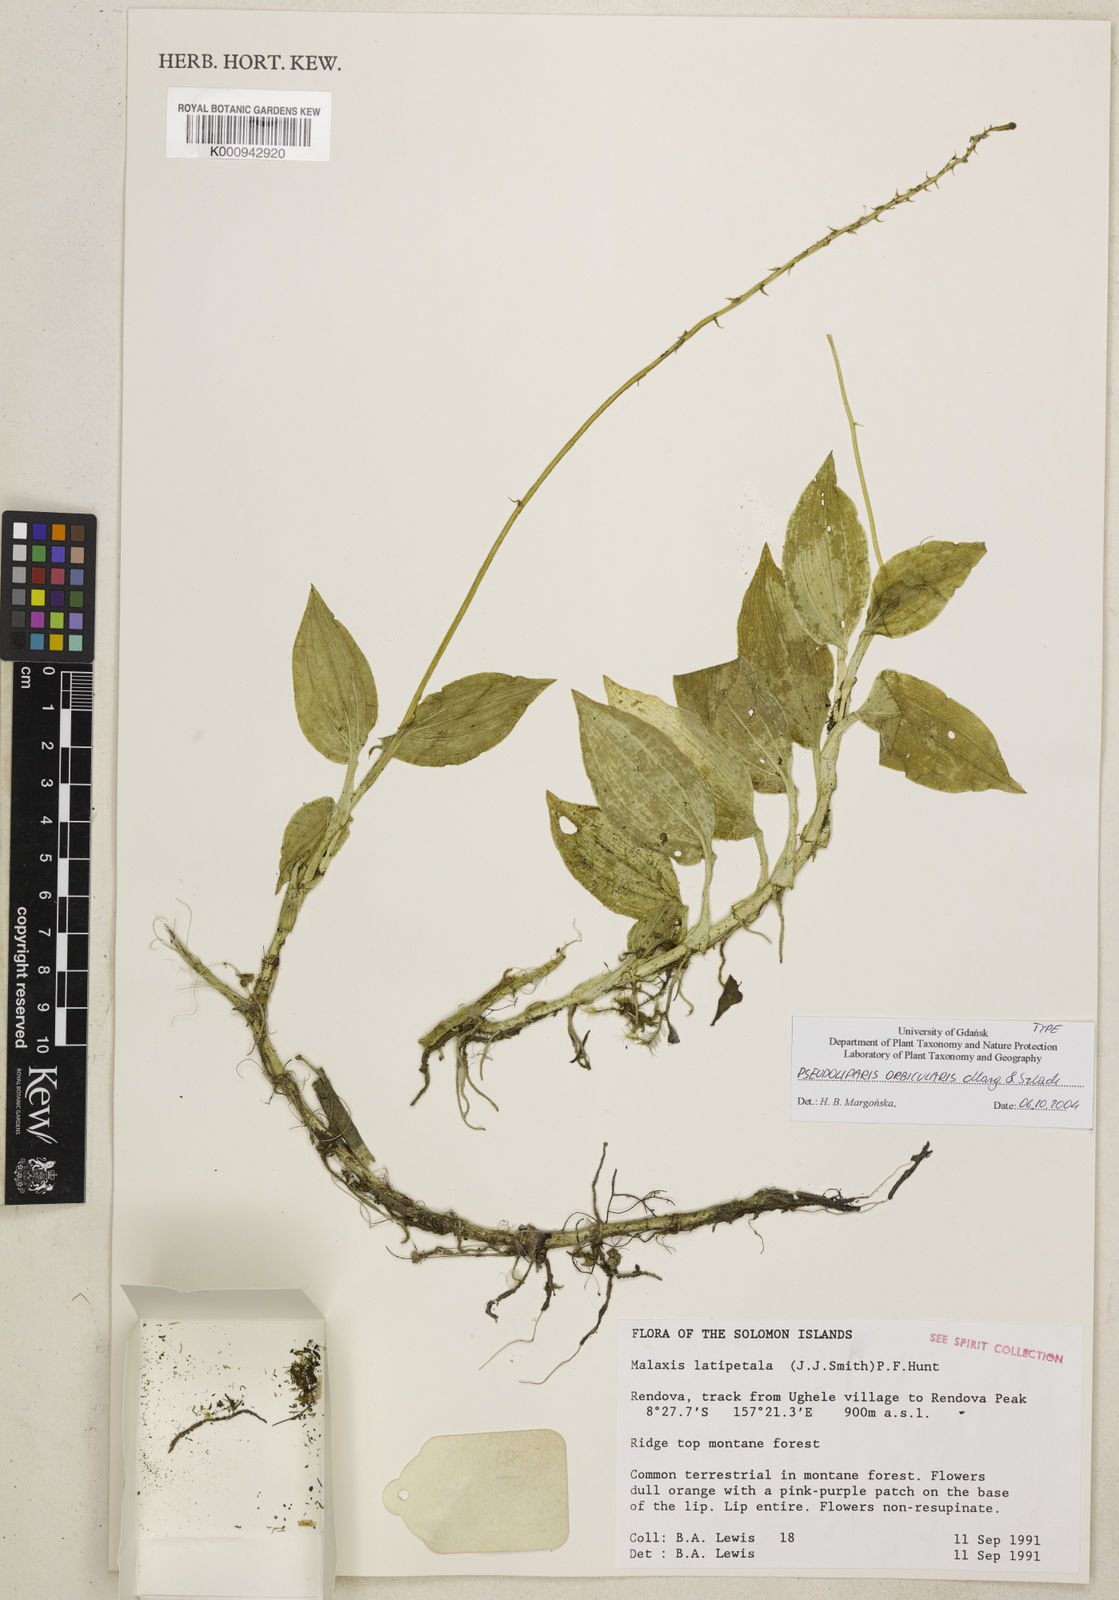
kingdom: Plantae
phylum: Tracheophyta
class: Liliopsida
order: Asparagales
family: Orchidaceae
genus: Crepidium
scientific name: Crepidium orbiculare
